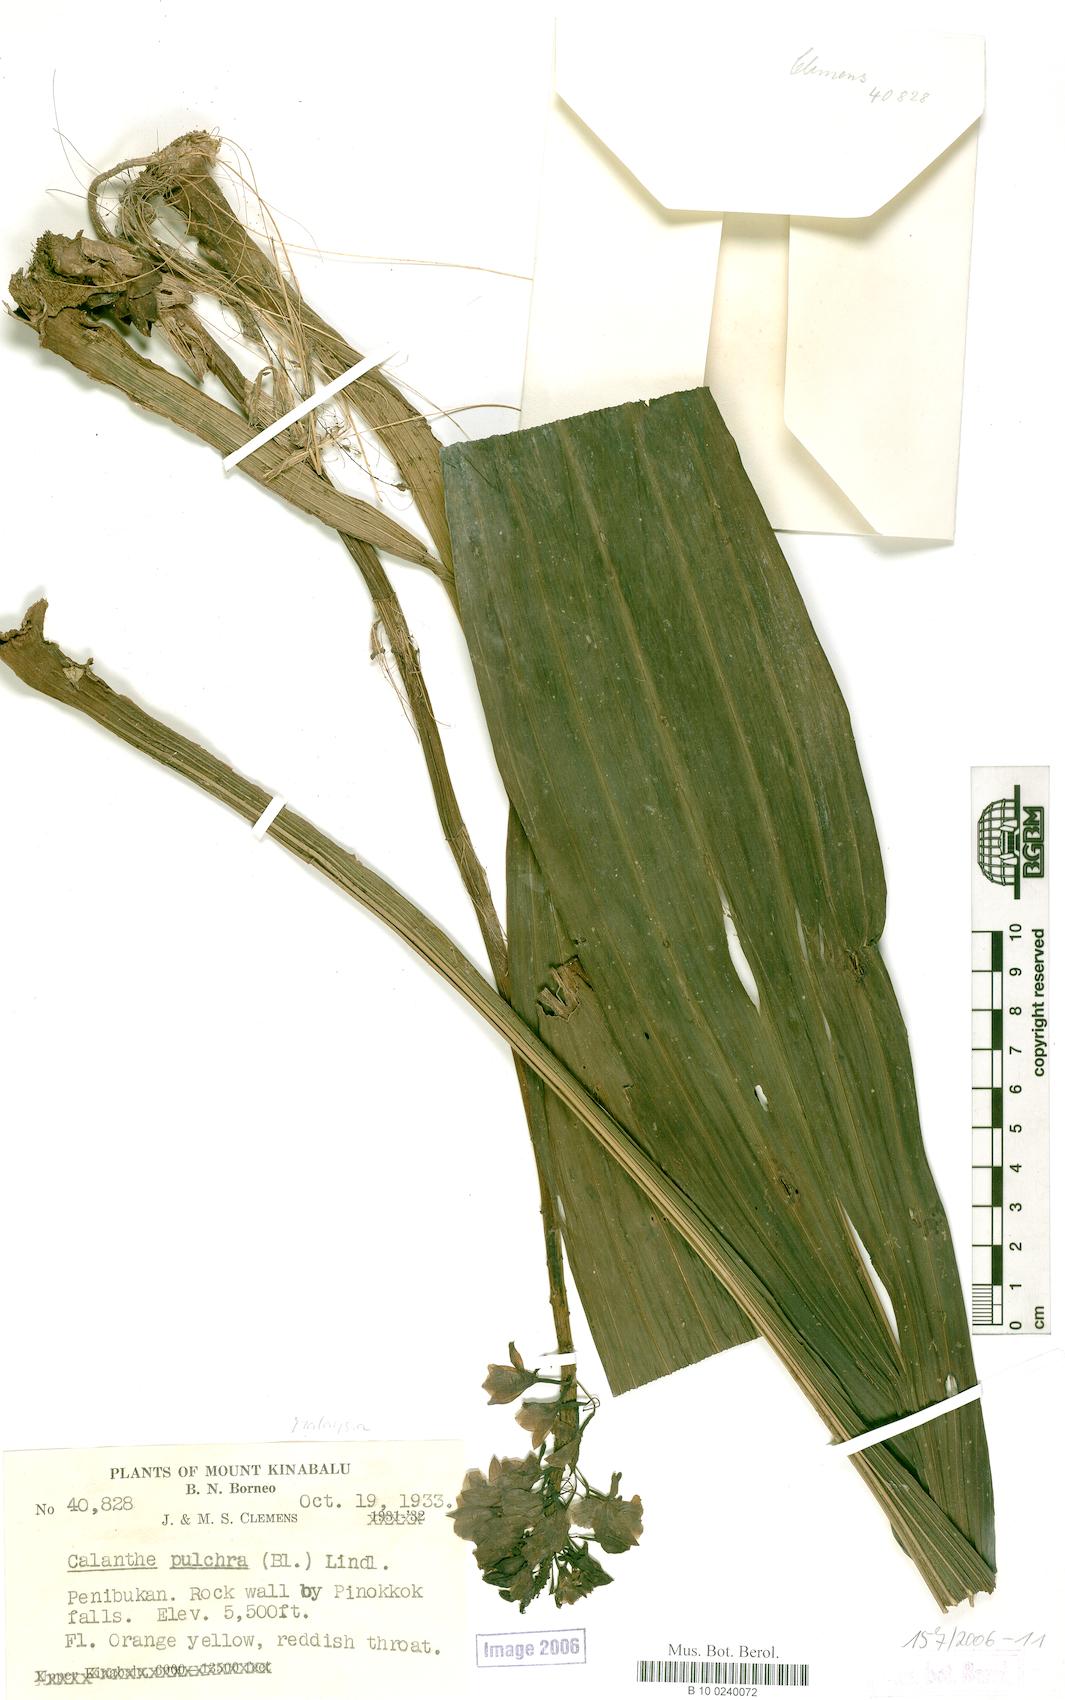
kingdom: Plantae
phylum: Tracheophyta
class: Liliopsida
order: Asparagales
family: Orchidaceae
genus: Calanthe
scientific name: Calanthe pulchra
